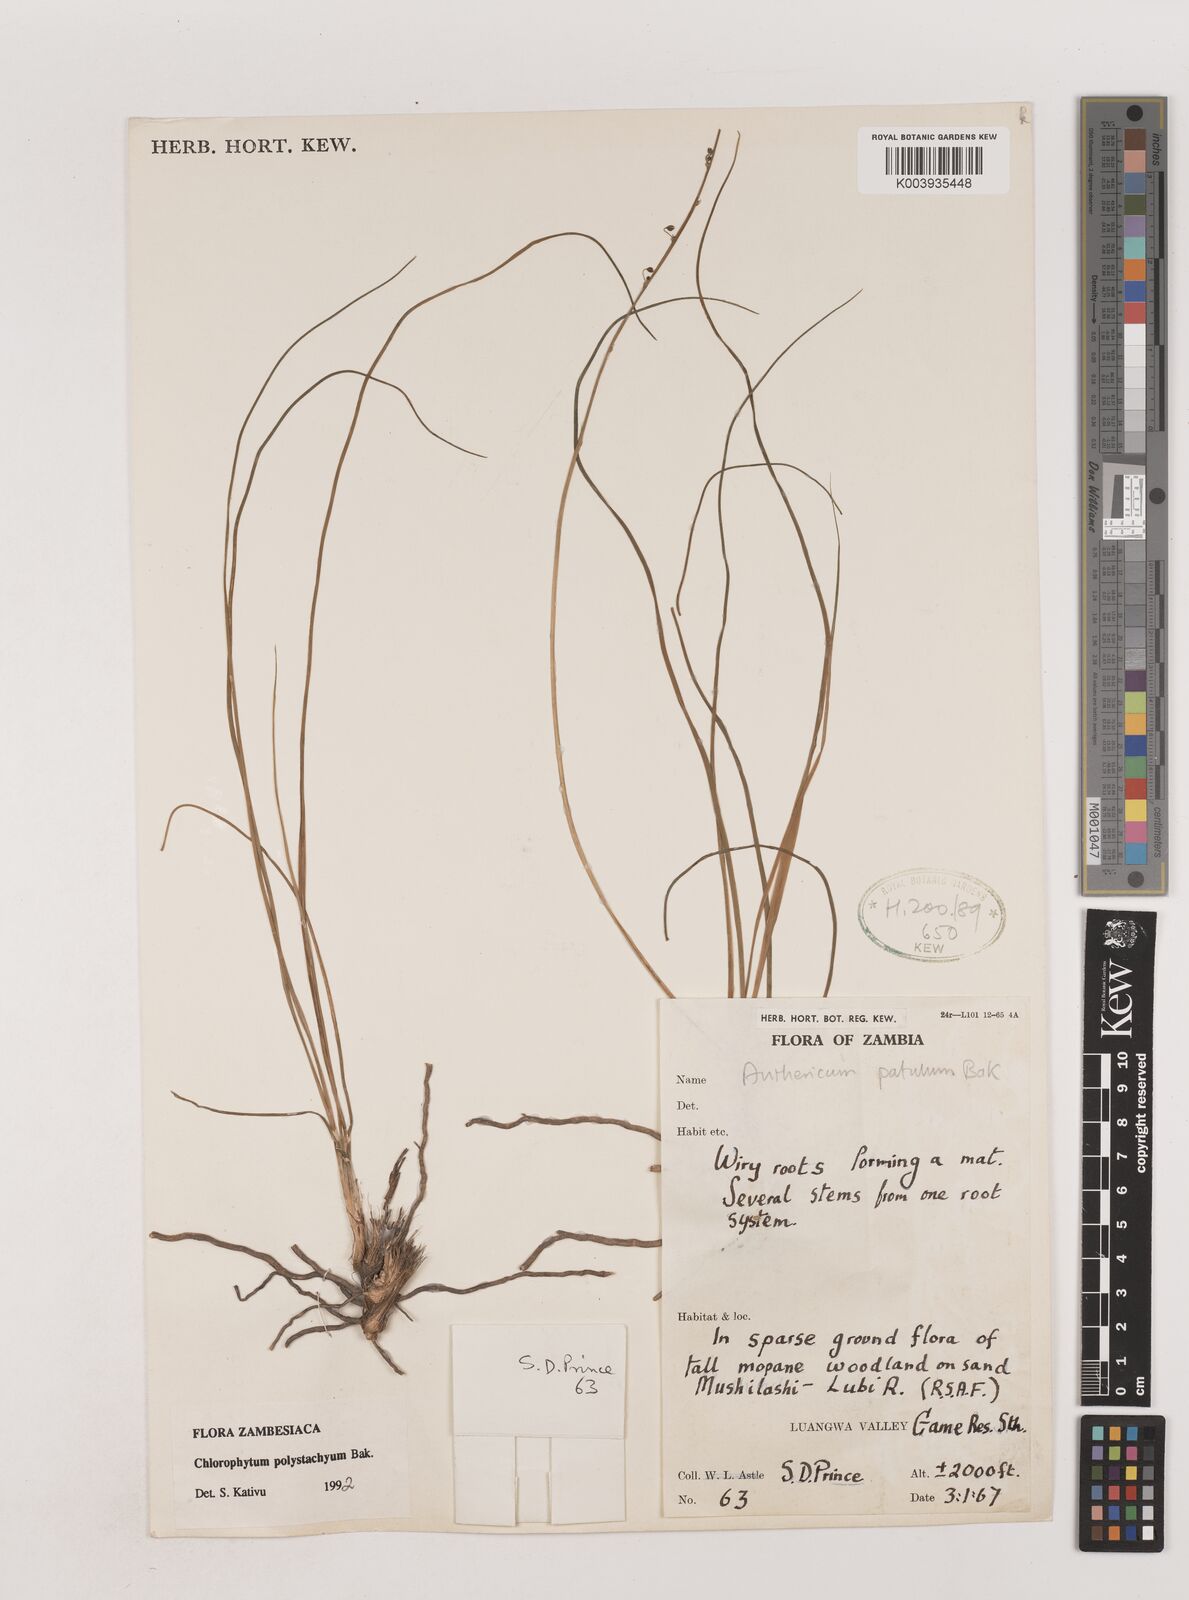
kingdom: Plantae
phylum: Tracheophyta
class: Liliopsida
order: Asparagales
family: Asparagaceae
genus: Chlorophytum
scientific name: Chlorophytum polystachys
